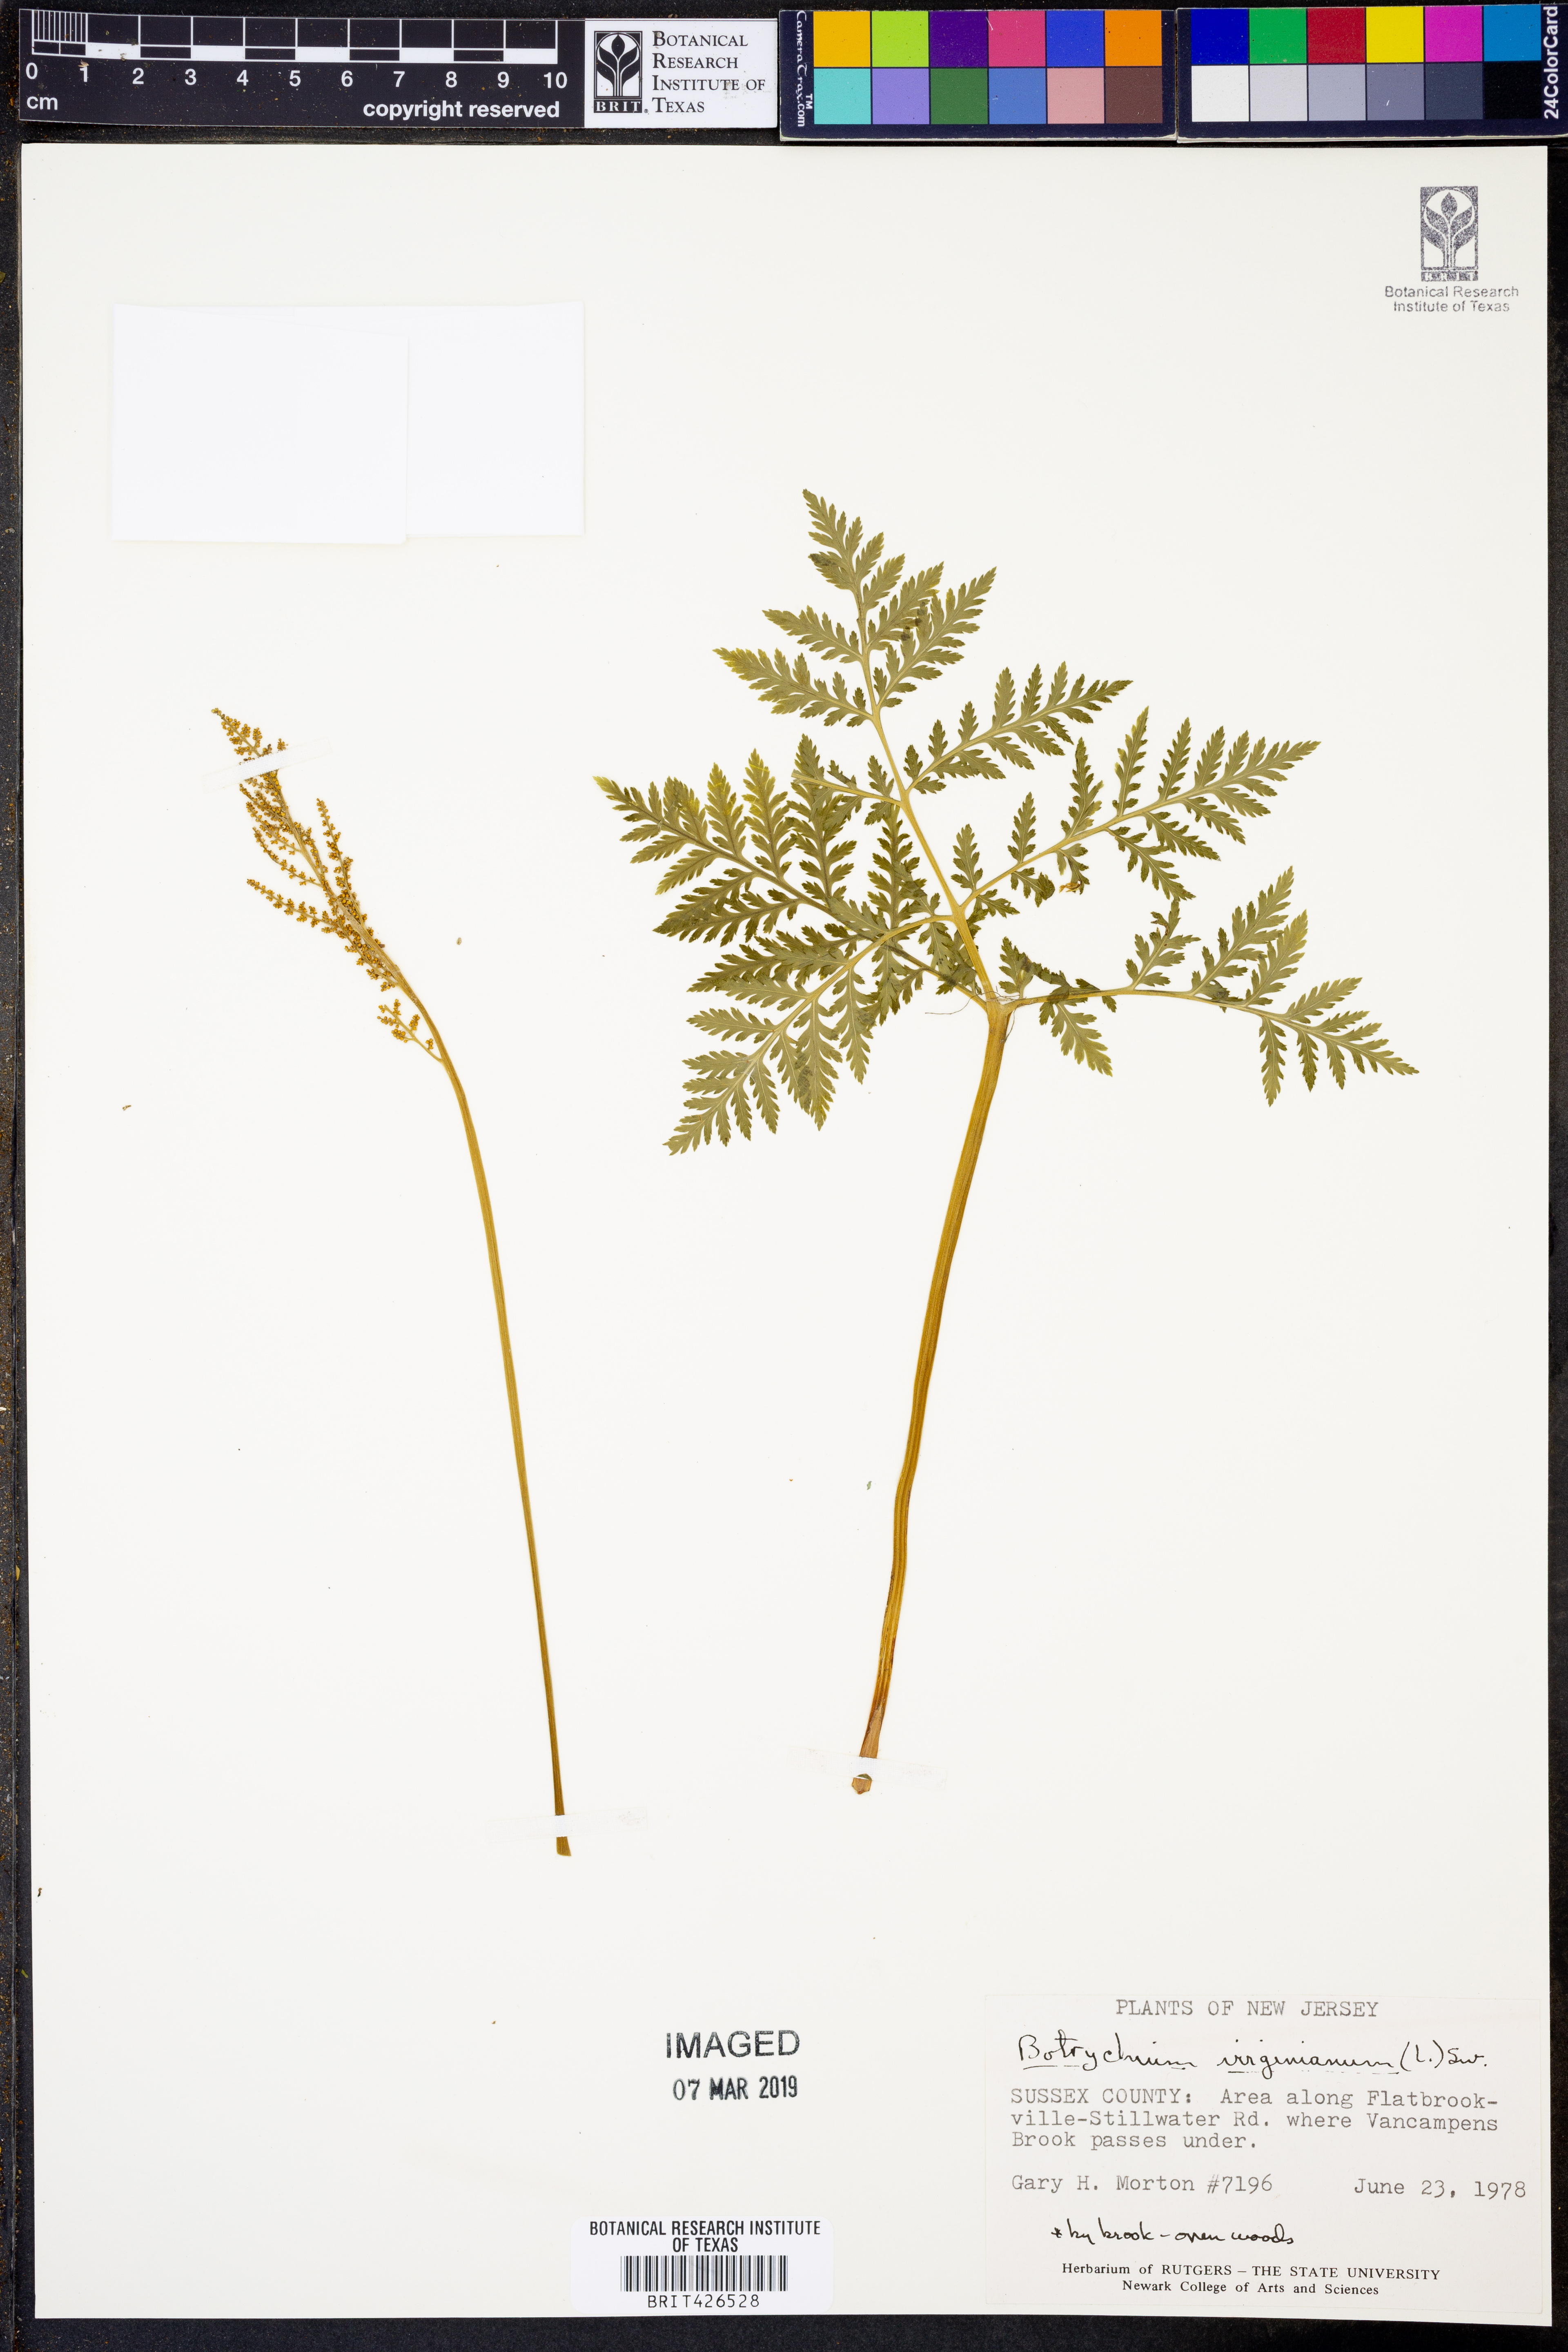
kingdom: Plantae
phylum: Tracheophyta
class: Polypodiopsida
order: Ophioglossales
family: Ophioglossaceae
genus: Botrypus
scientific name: Botrypus virginianus
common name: Common grapefern
